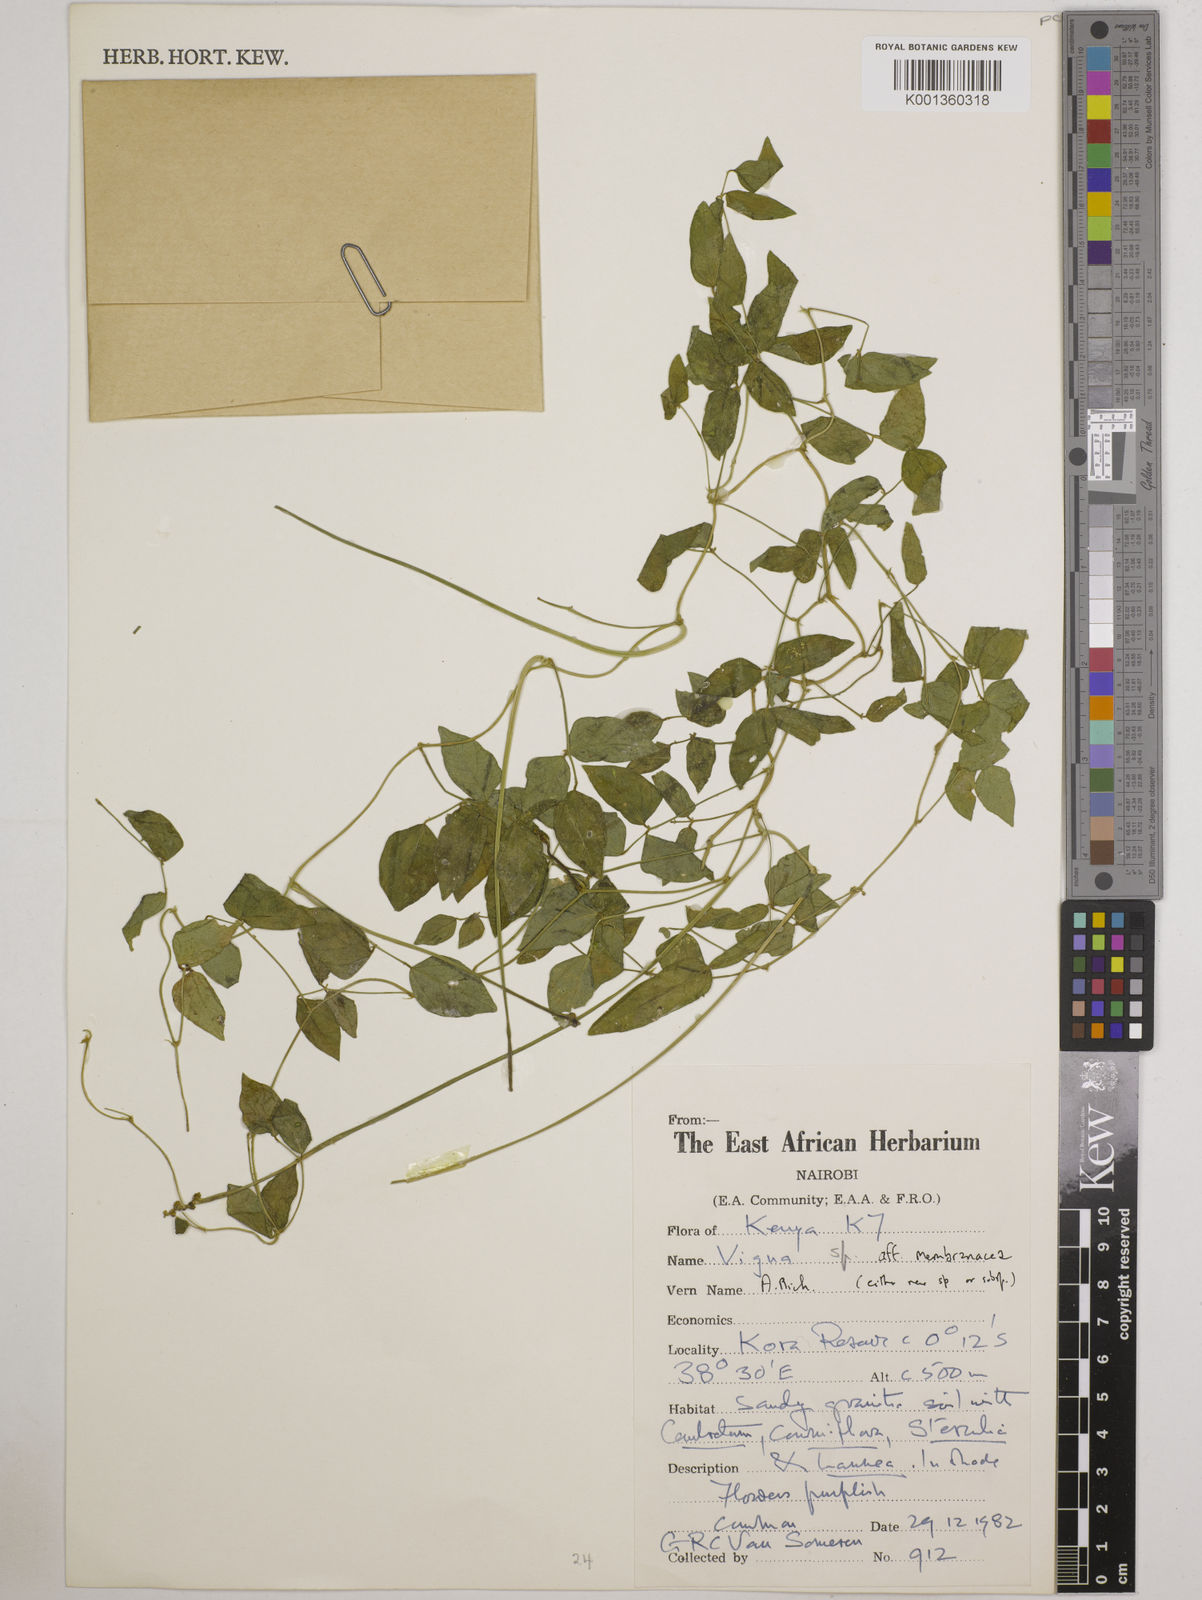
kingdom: Plantae
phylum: Tracheophyta
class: Magnoliopsida
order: Fabales
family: Fabaceae
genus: Vigna
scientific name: Vigna membranacea
